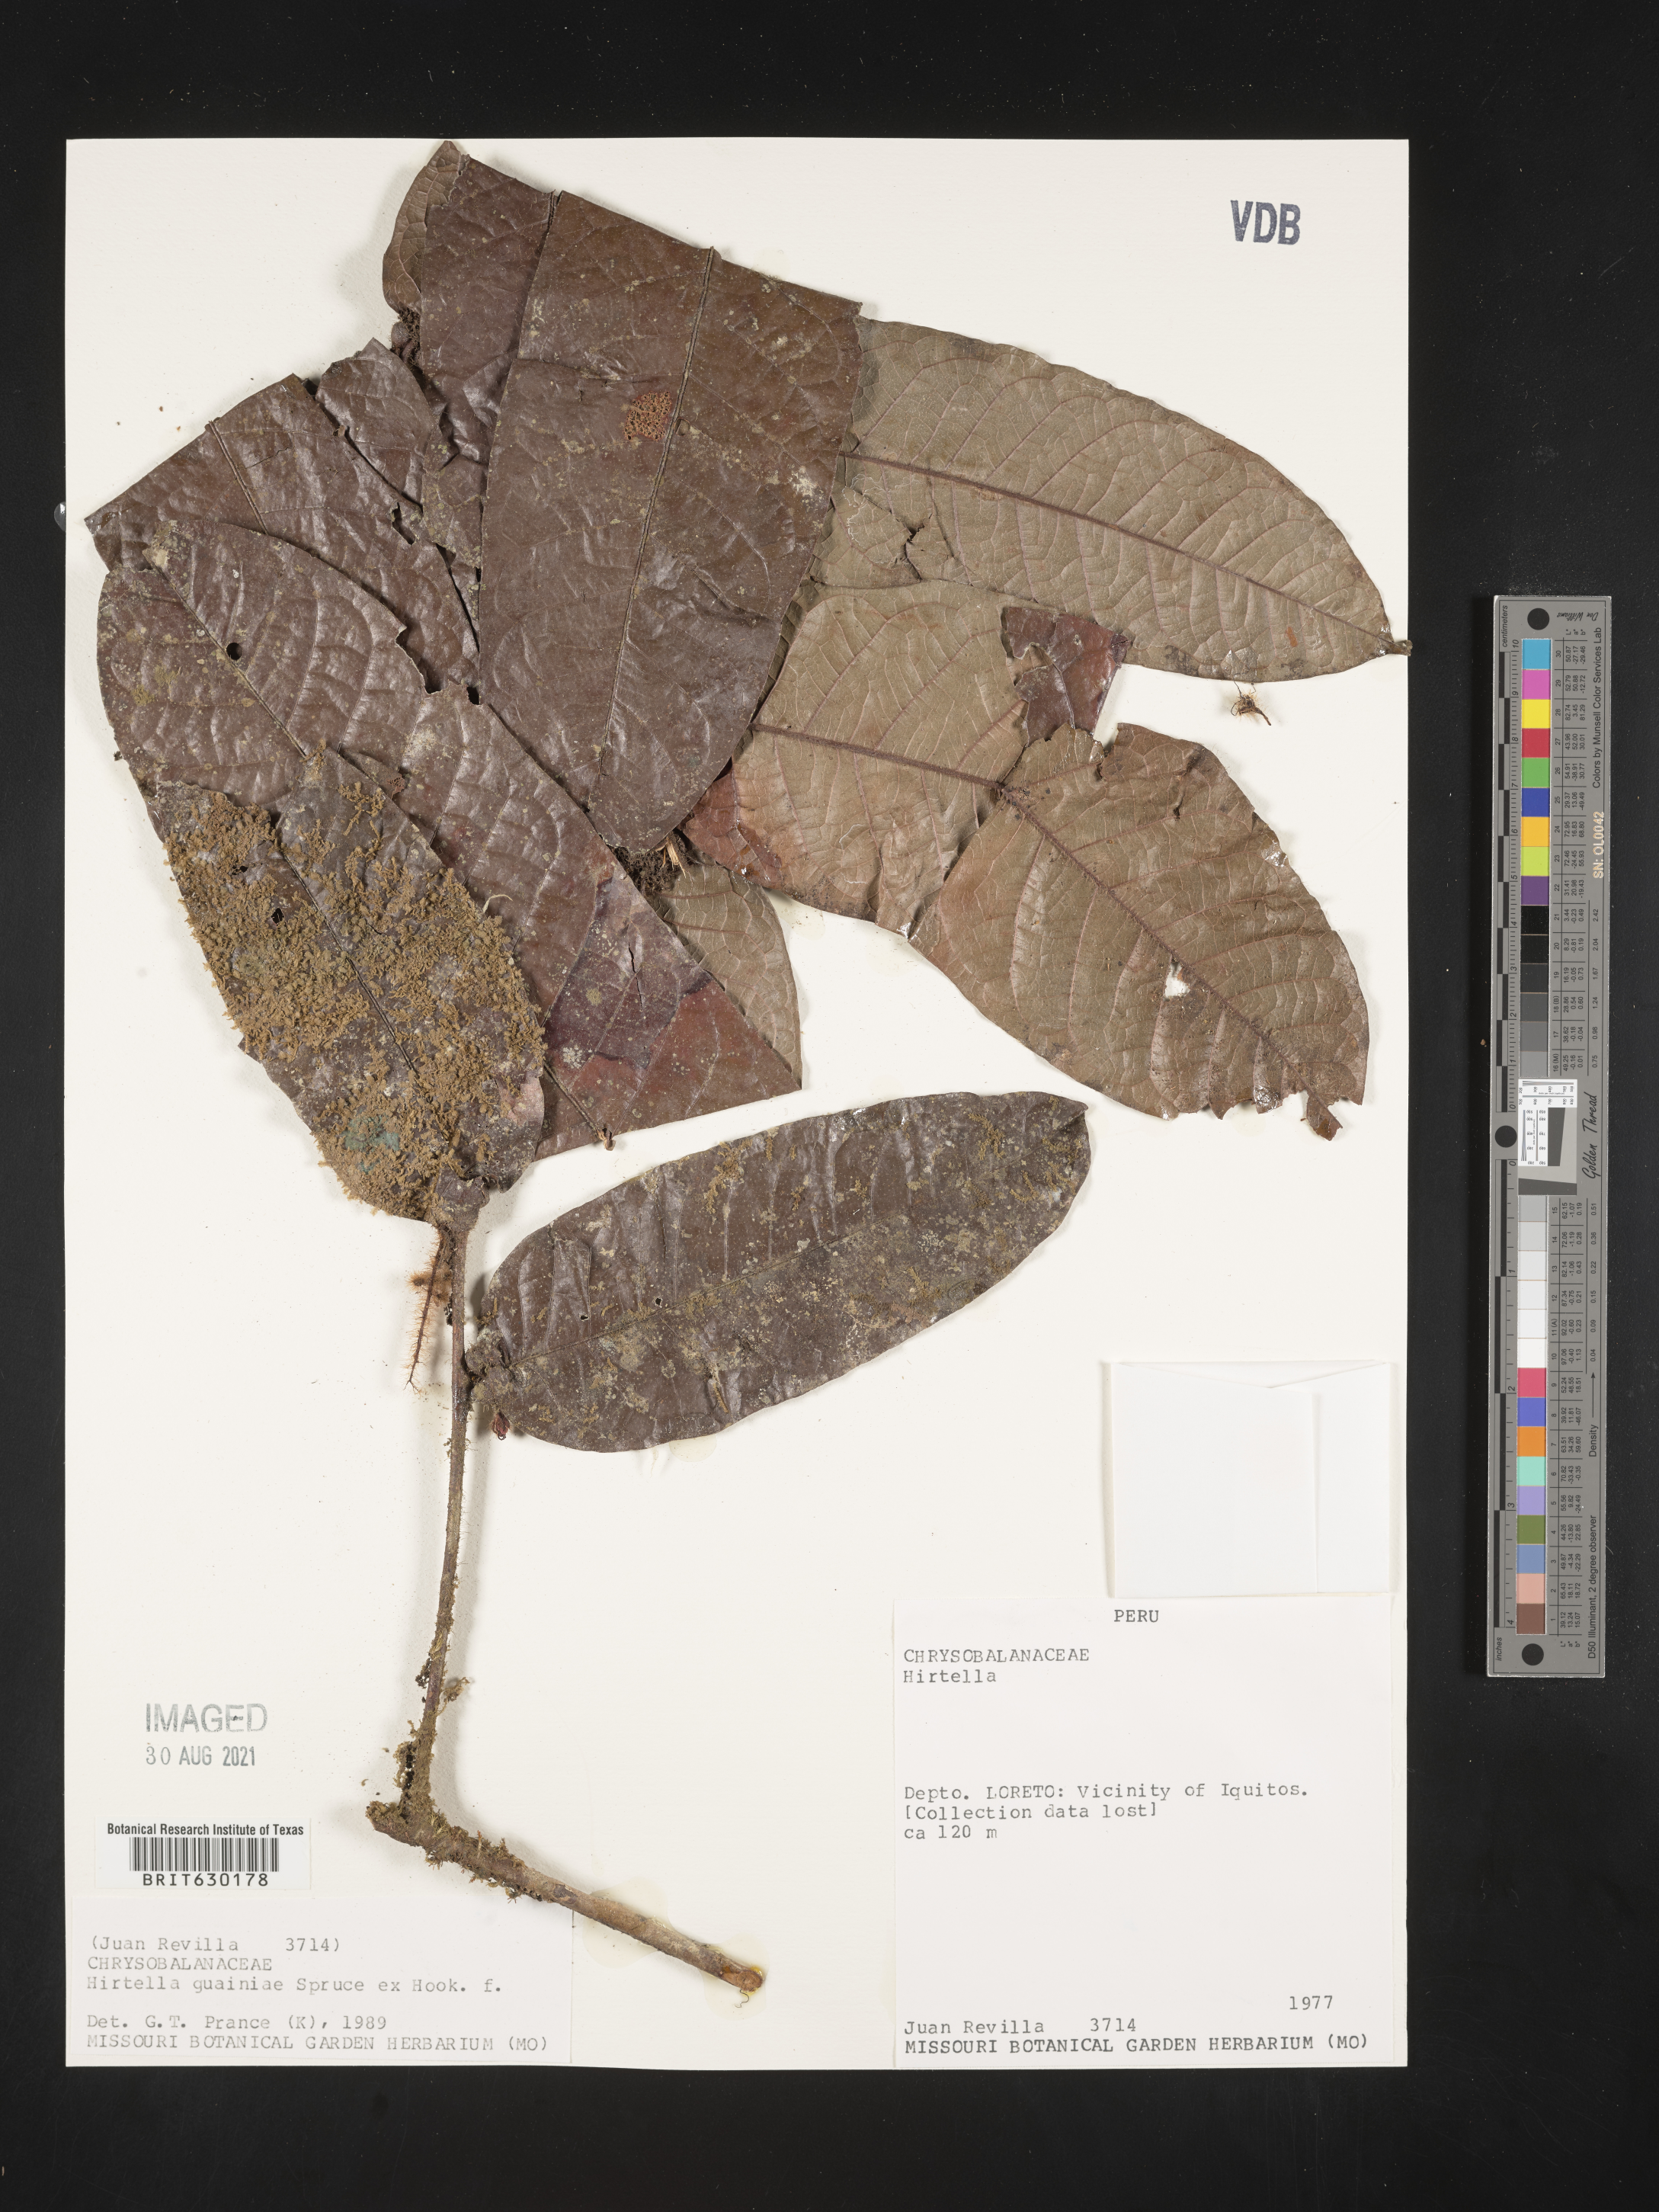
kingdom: Plantae
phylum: Tracheophyta
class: Magnoliopsida
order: Malpighiales
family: Chrysobalanaceae
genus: Hirtella
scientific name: Hirtella guainiae
